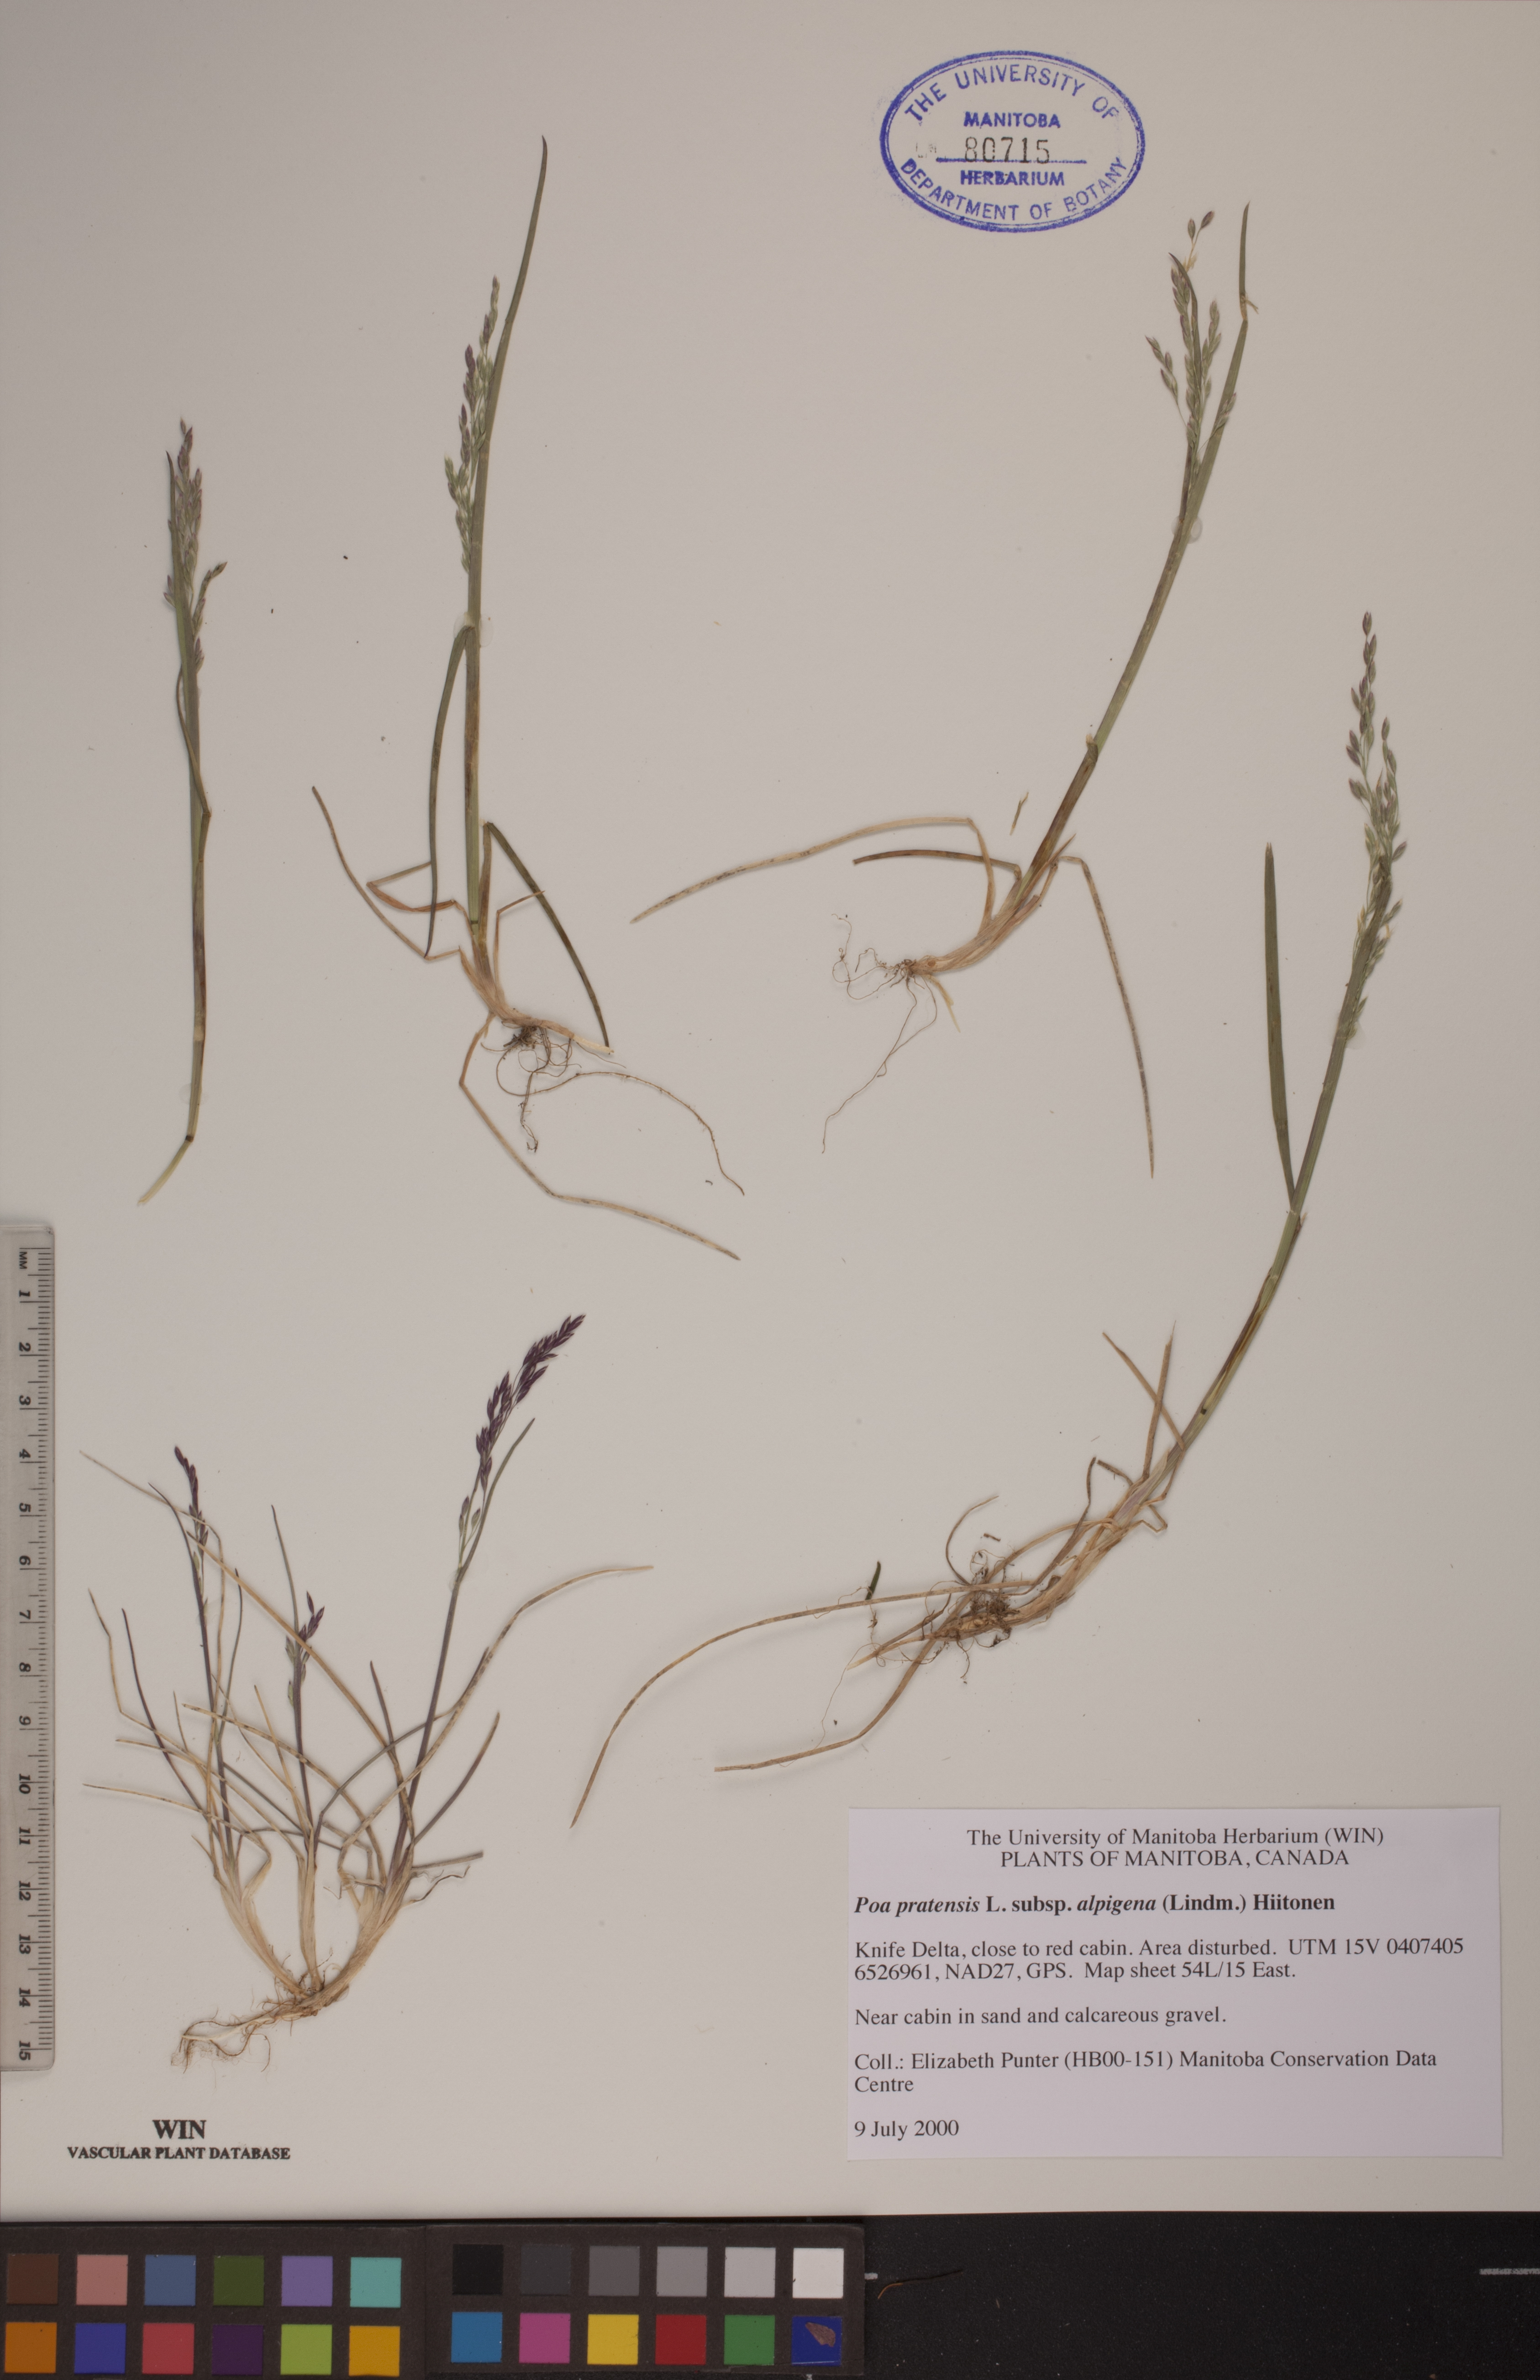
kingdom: Plantae
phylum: Tracheophyta
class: Liliopsida
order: Poales
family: Poaceae
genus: Poa
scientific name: Poa alpigena
